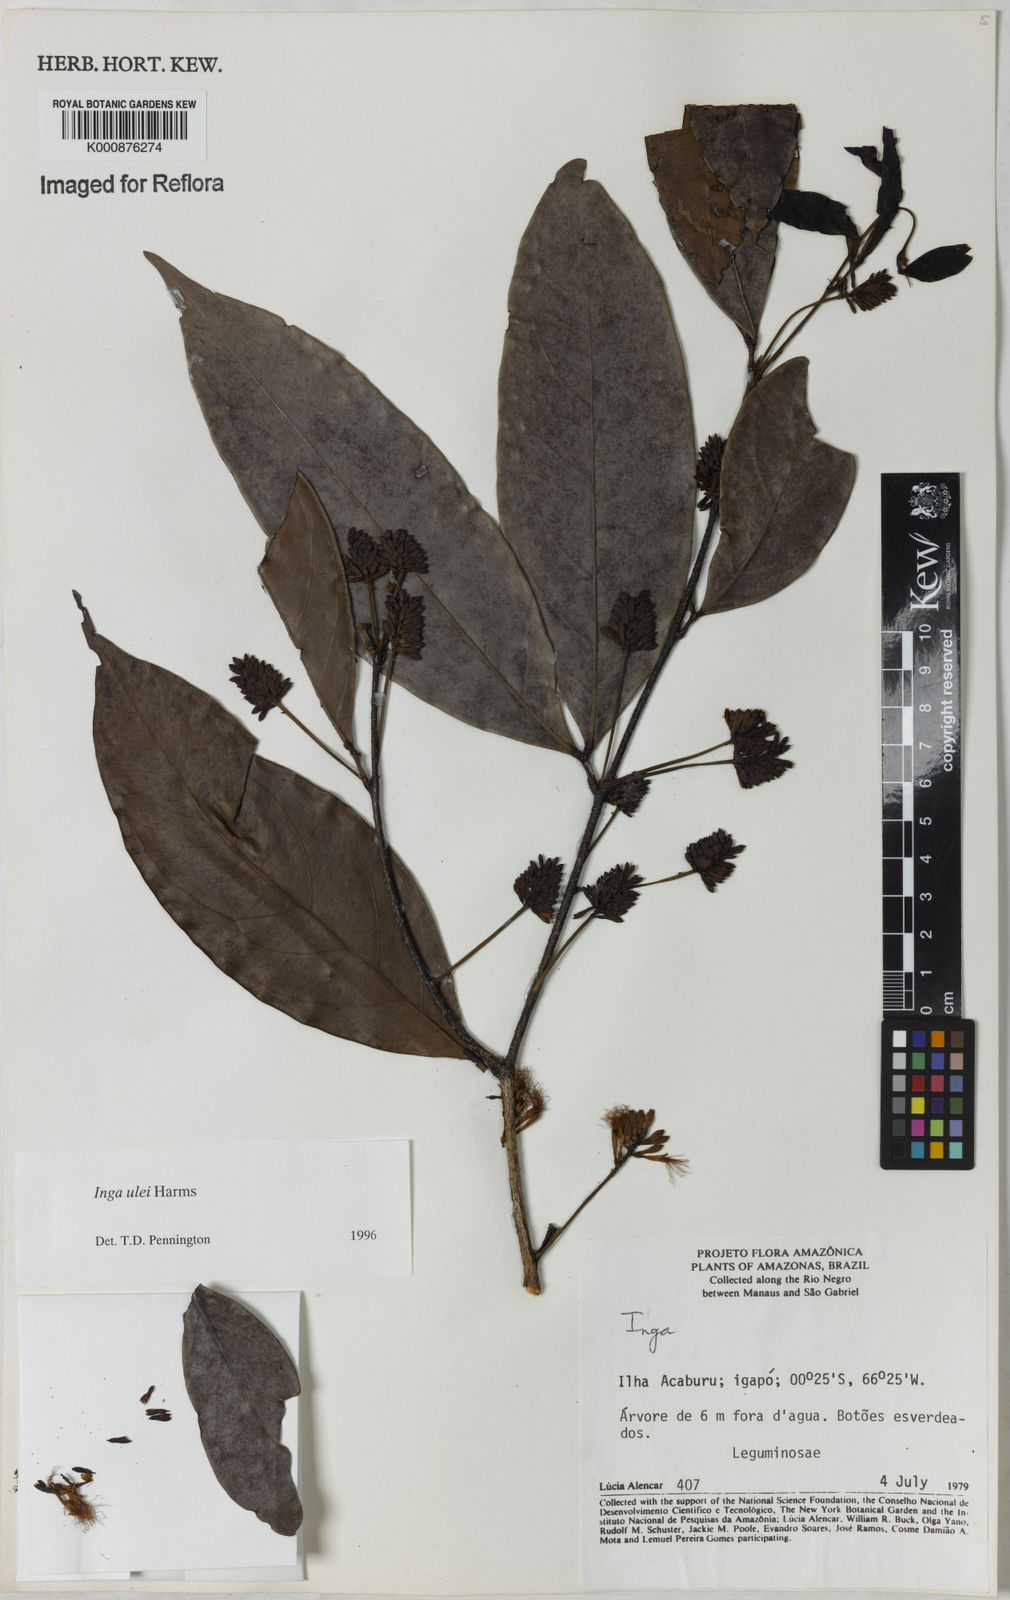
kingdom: Plantae
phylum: Tracheophyta
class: Magnoliopsida
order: Fabales
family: Fabaceae
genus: Inga
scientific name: Inga ulei
